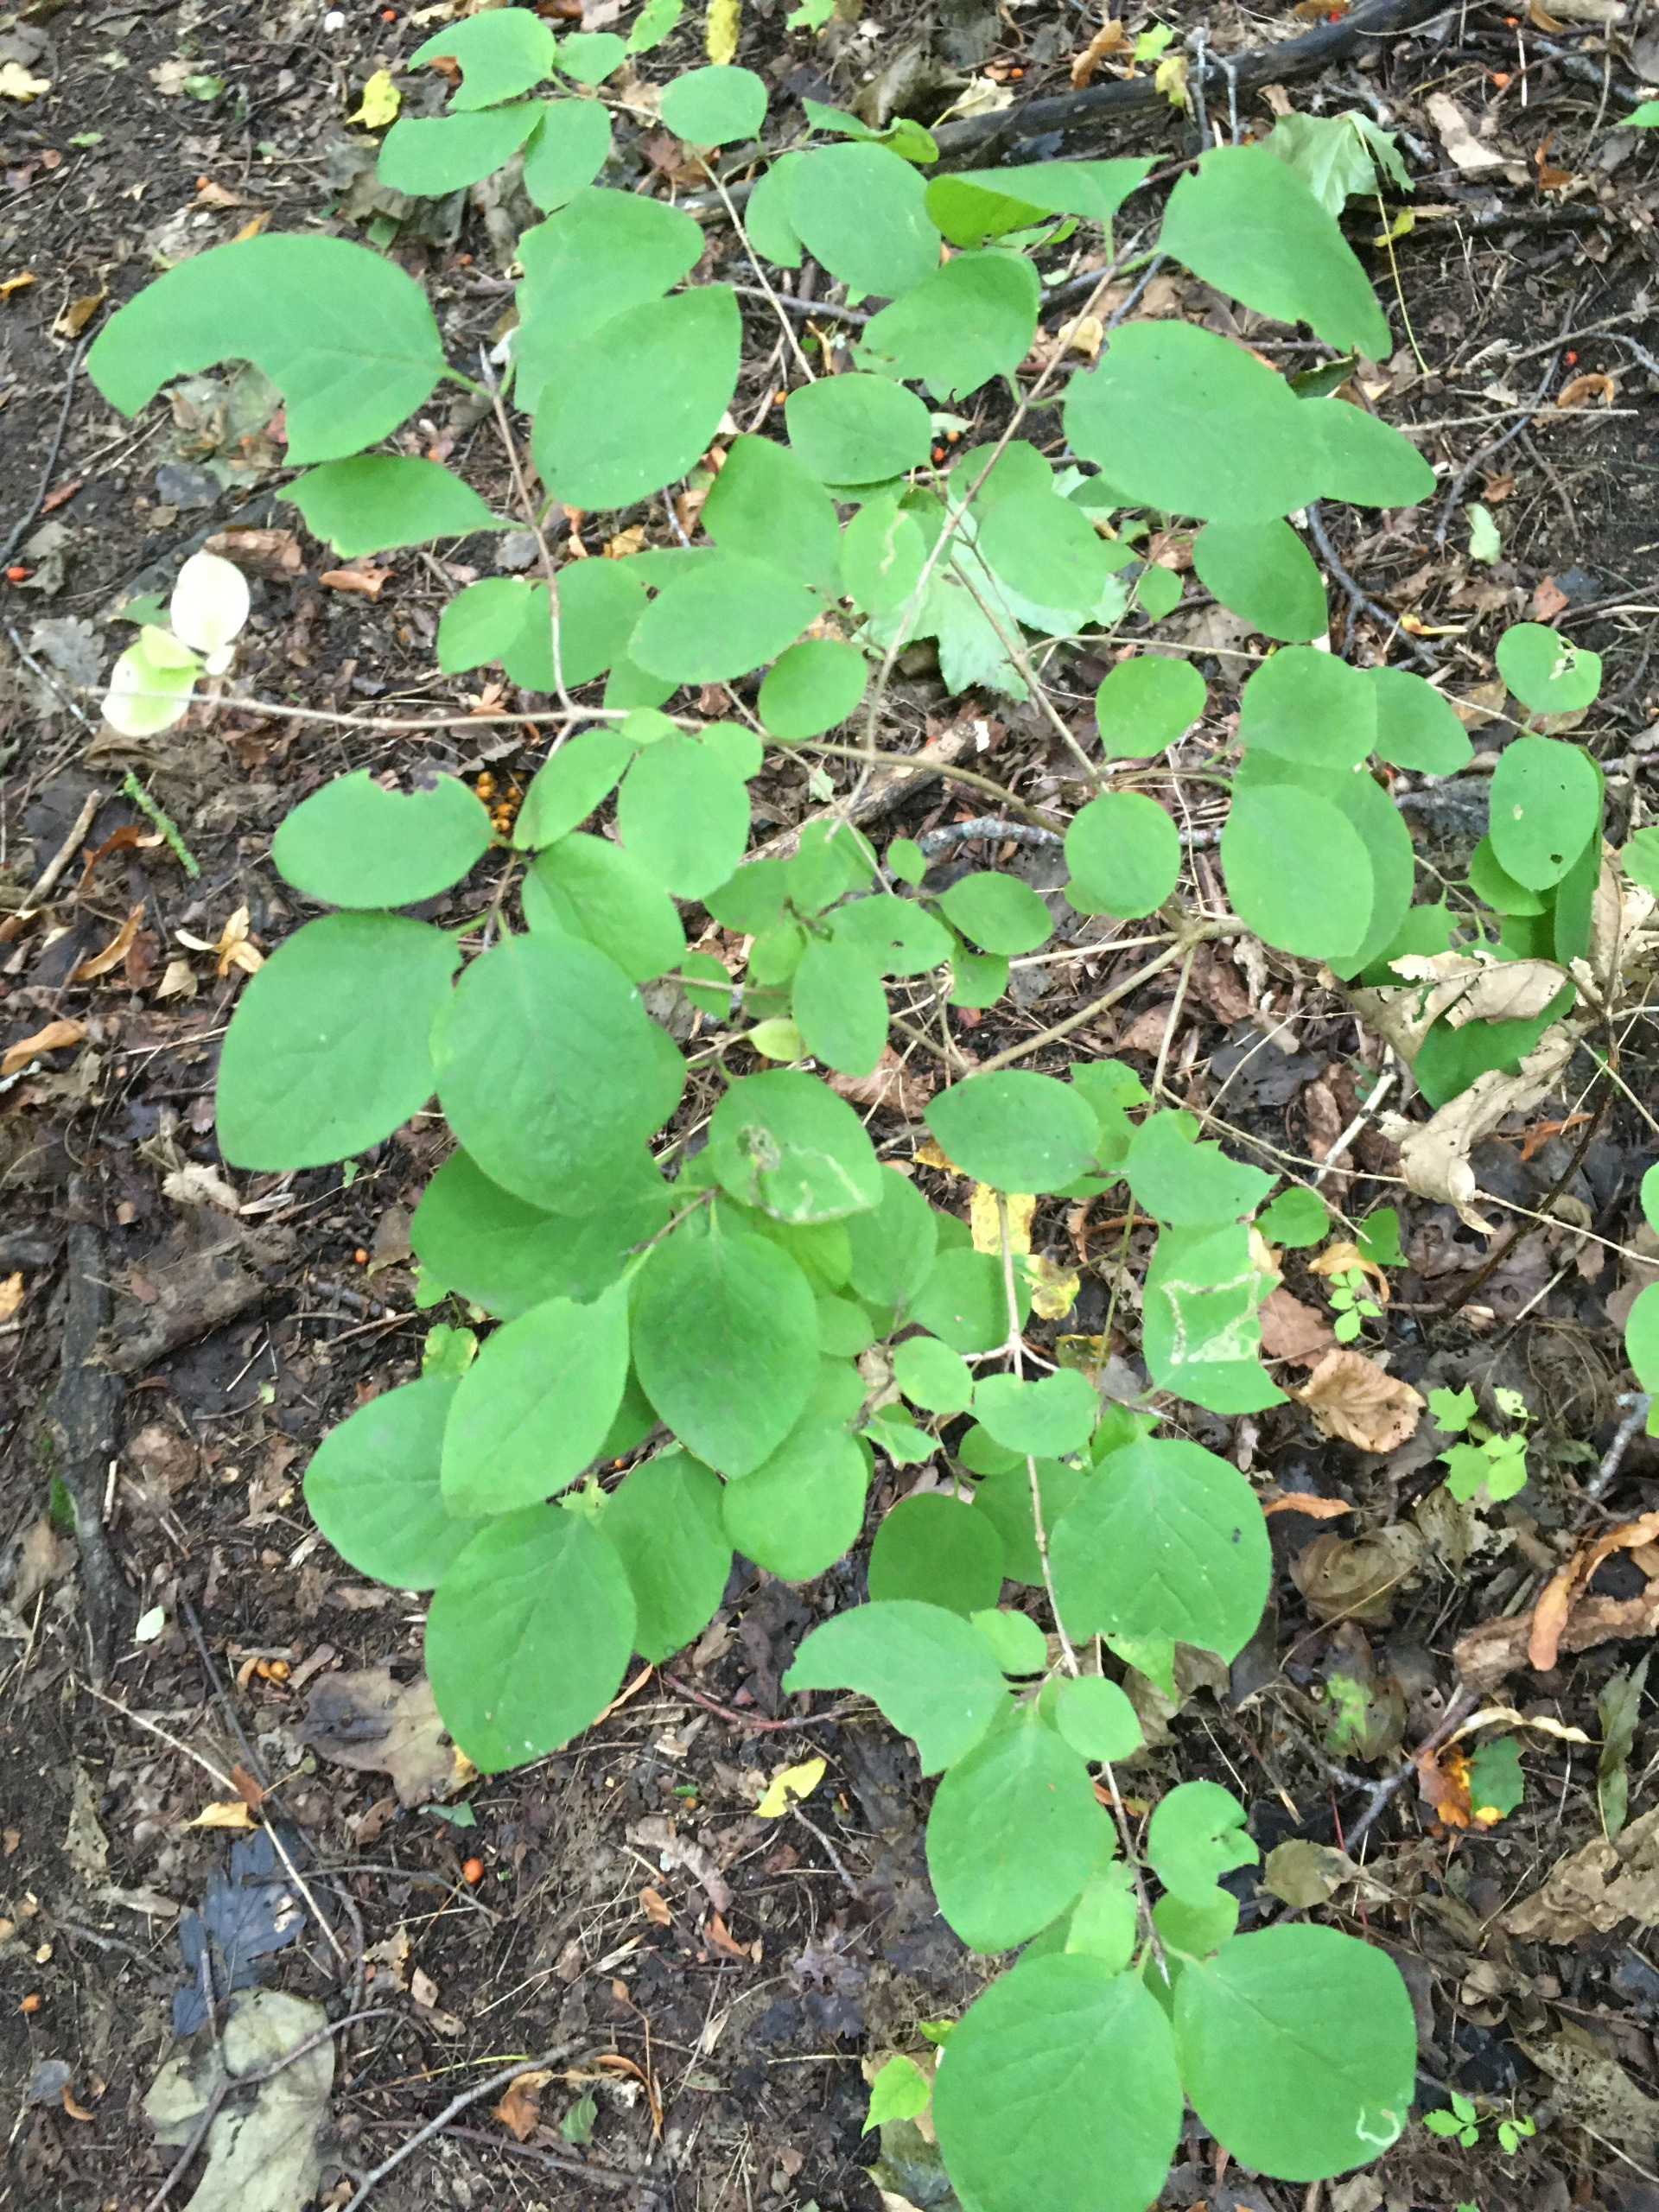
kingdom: Plantae
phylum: Tracheophyta
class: Magnoliopsida
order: Dipsacales
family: Caprifoliaceae
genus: Lonicera
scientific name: Lonicera xylosteum
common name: Dunet gedeblad
